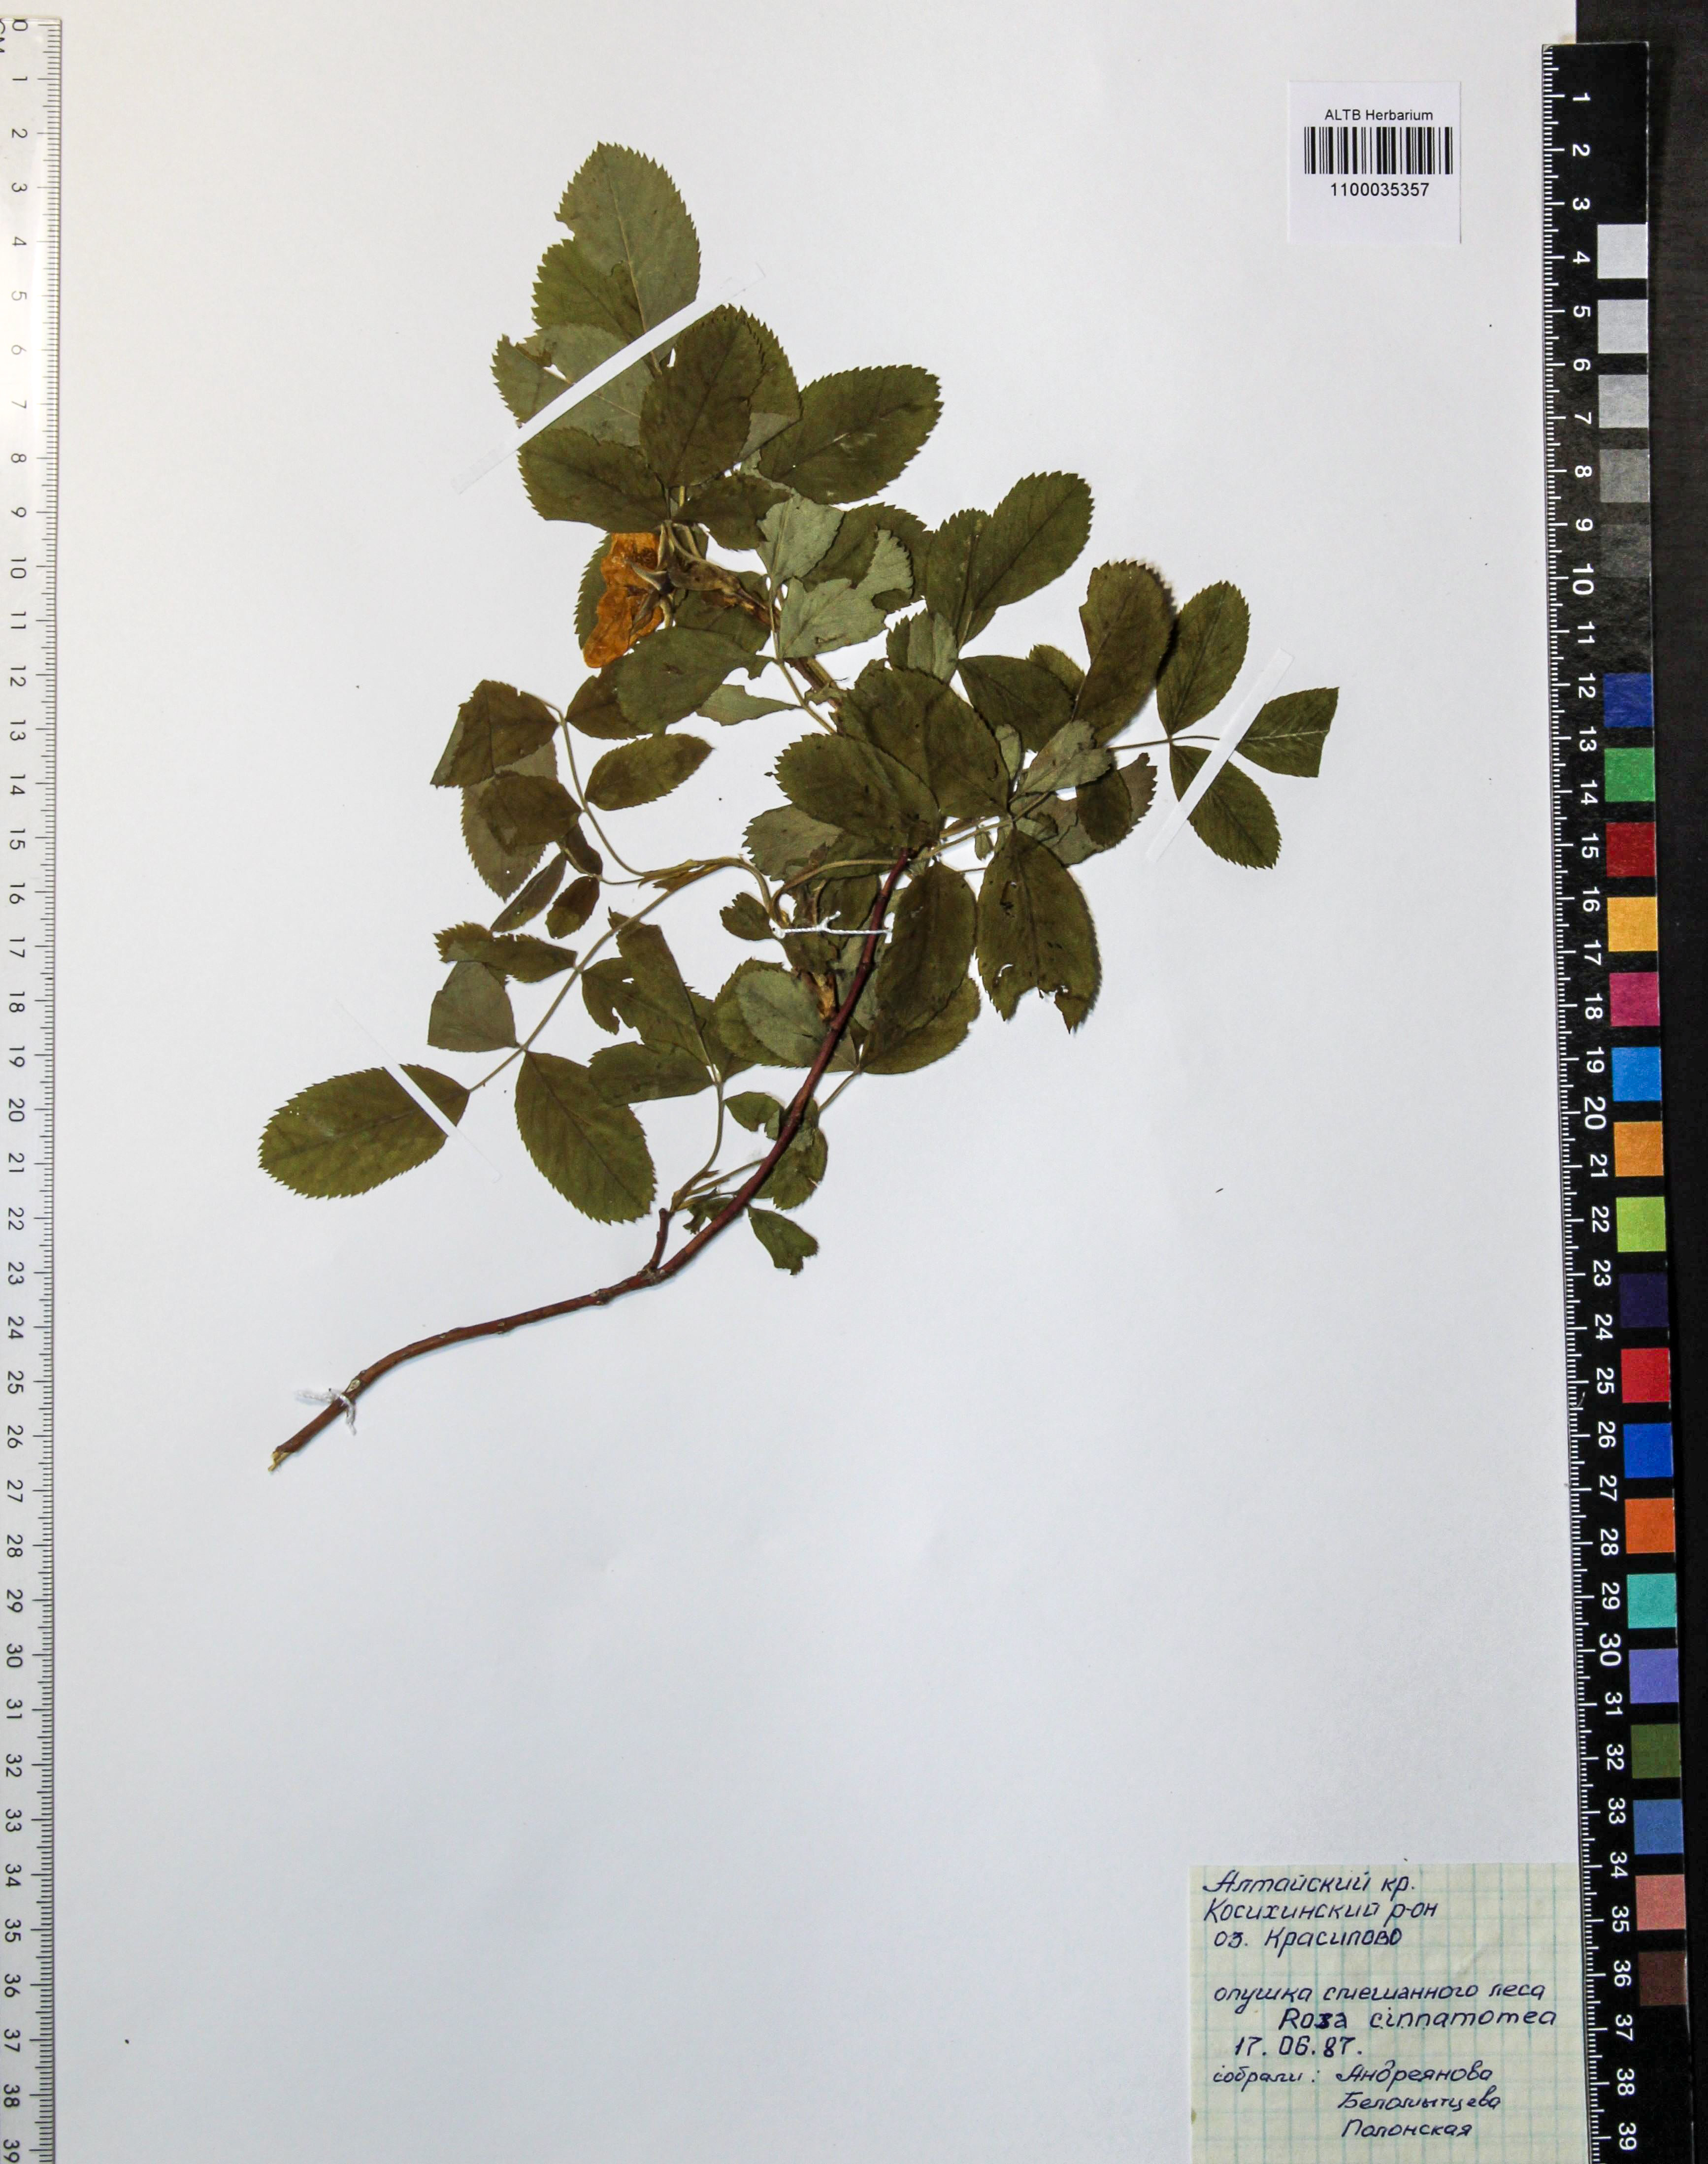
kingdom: Plantae
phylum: Tracheophyta
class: Magnoliopsida
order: Rosales
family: Rosaceae
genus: Rosa
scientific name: Rosa pendulina
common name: Alpine rose
